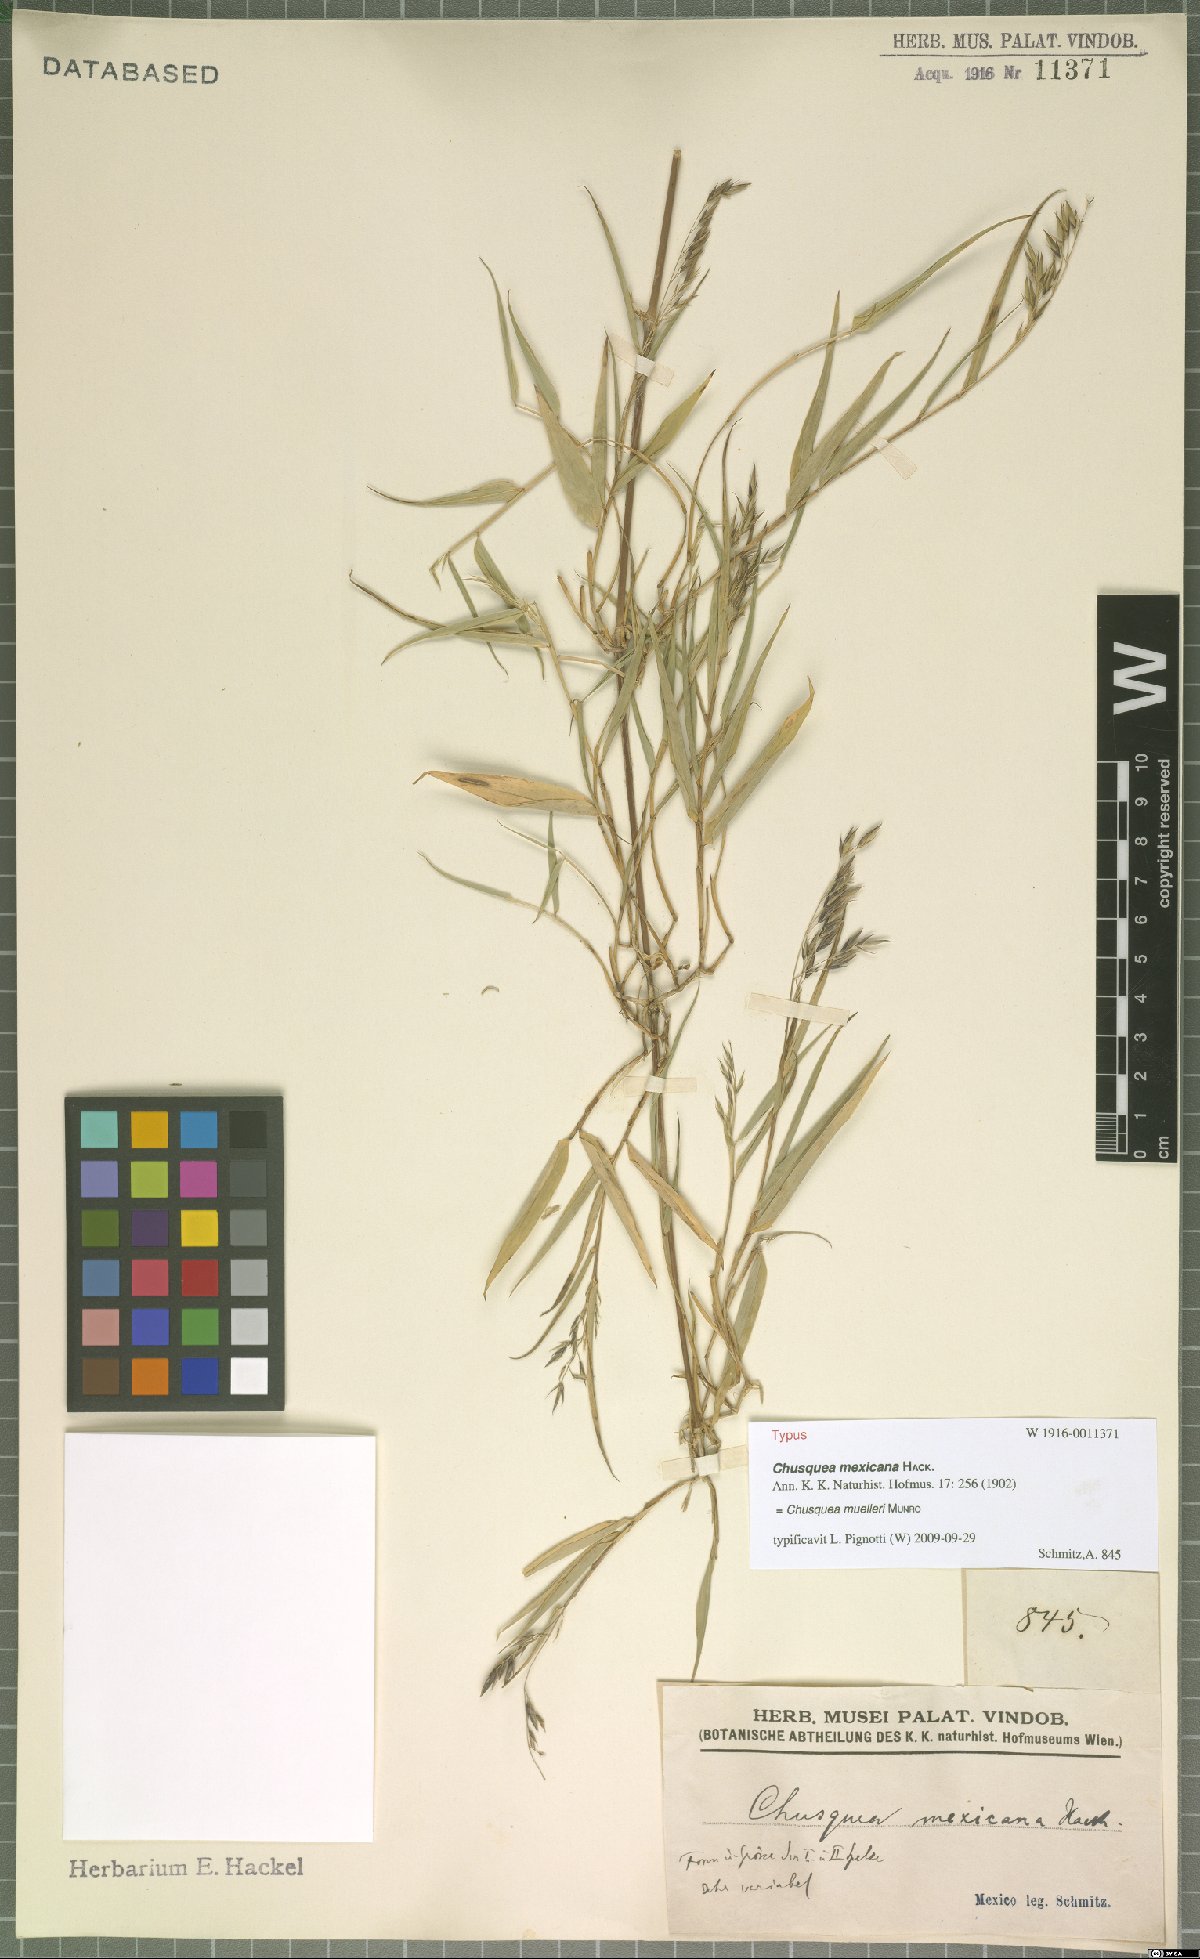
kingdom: Plantae
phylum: Tracheophyta
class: Liliopsida
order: Poales
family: Poaceae
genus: Chusquea
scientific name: Chusquea mulleri
